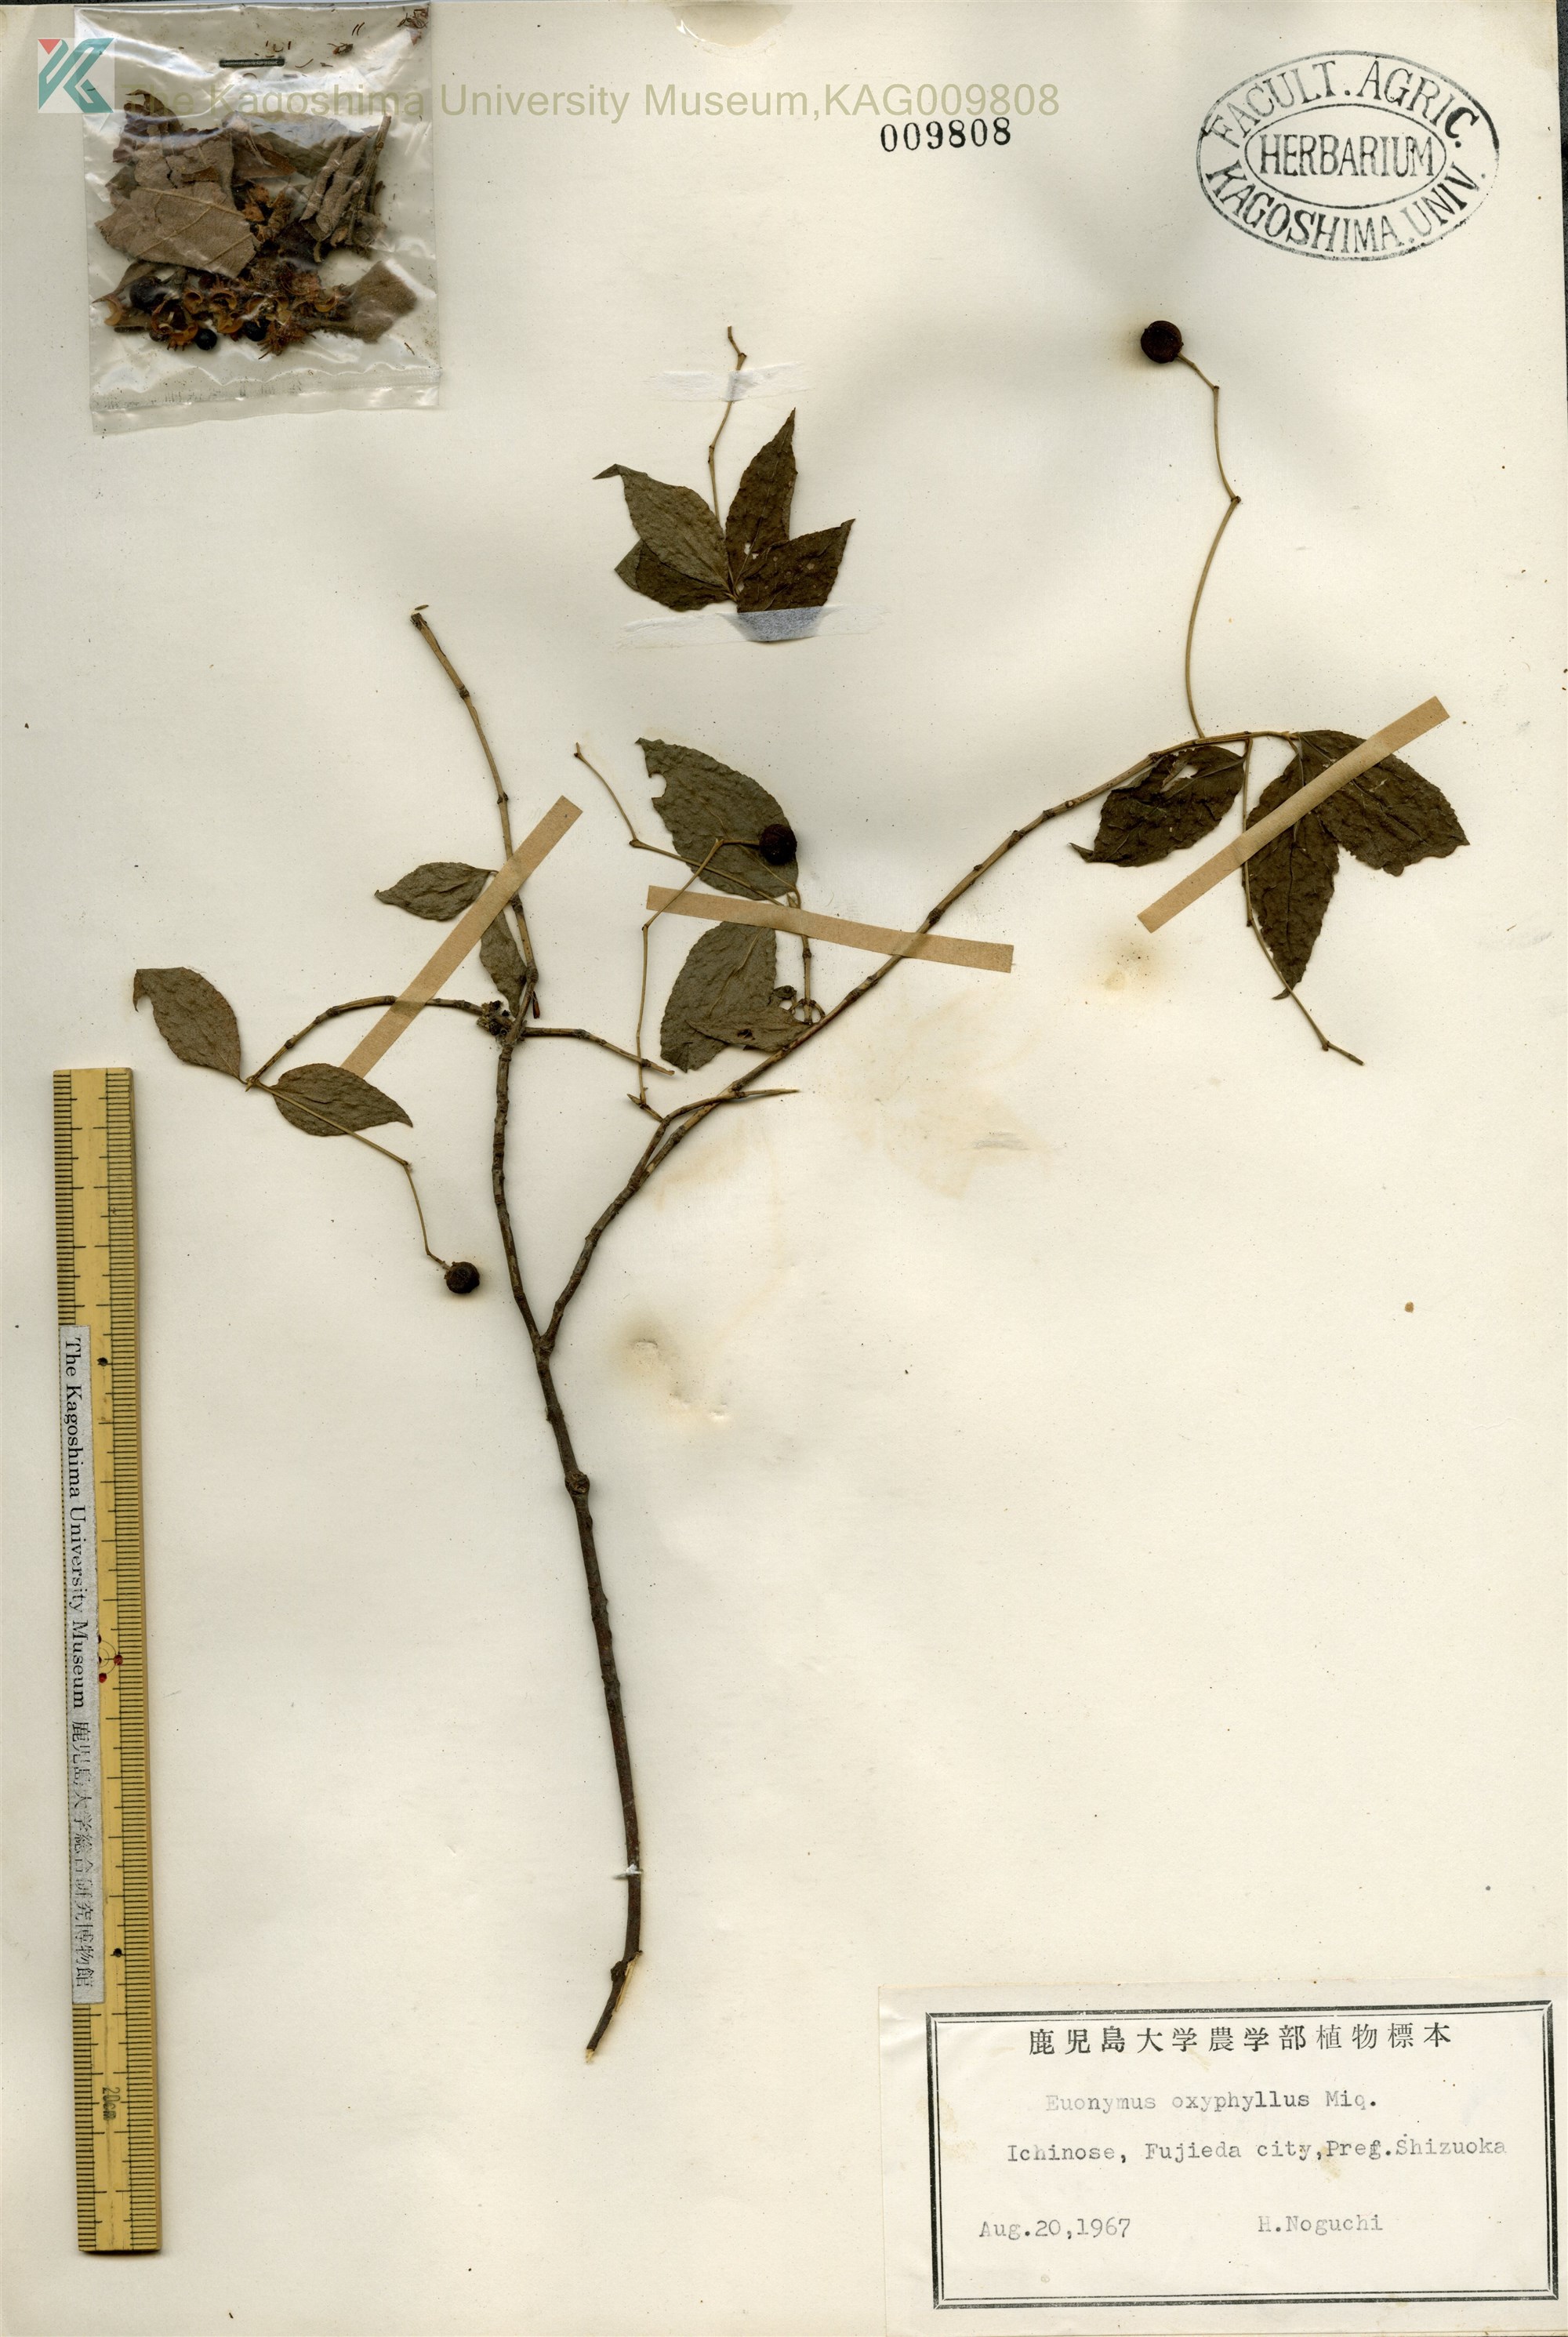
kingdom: Plantae
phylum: Tracheophyta
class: Magnoliopsida
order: Celastrales
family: Celastraceae
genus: Euonymus
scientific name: Euonymus oxyphyllus
